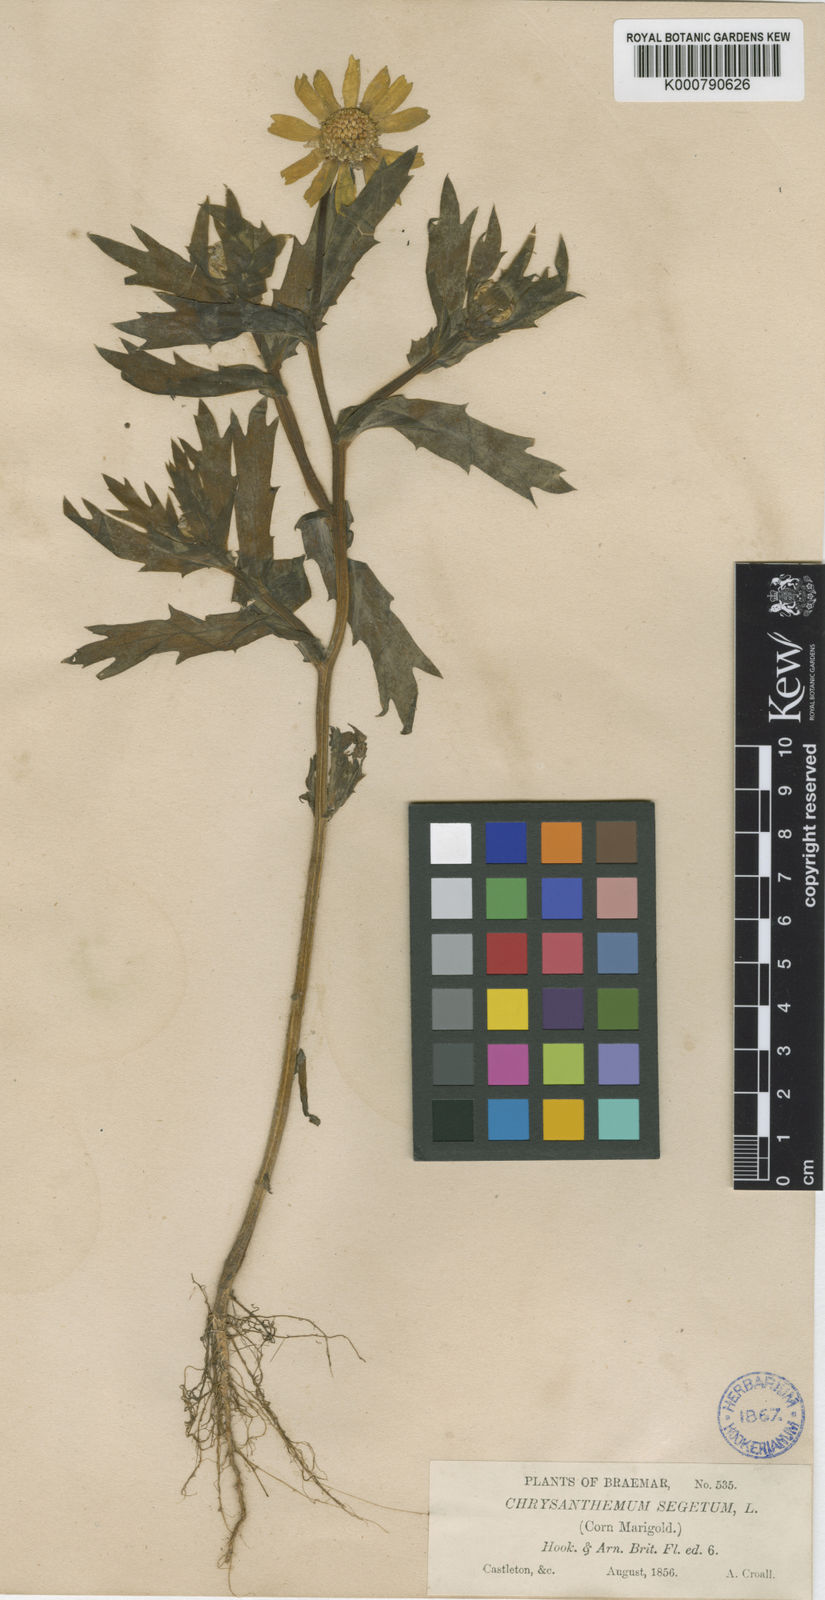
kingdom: Plantae
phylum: Tracheophyta
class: Magnoliopsida
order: Asterales
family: Asteraceae
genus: Glebionis
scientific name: Glebionis
